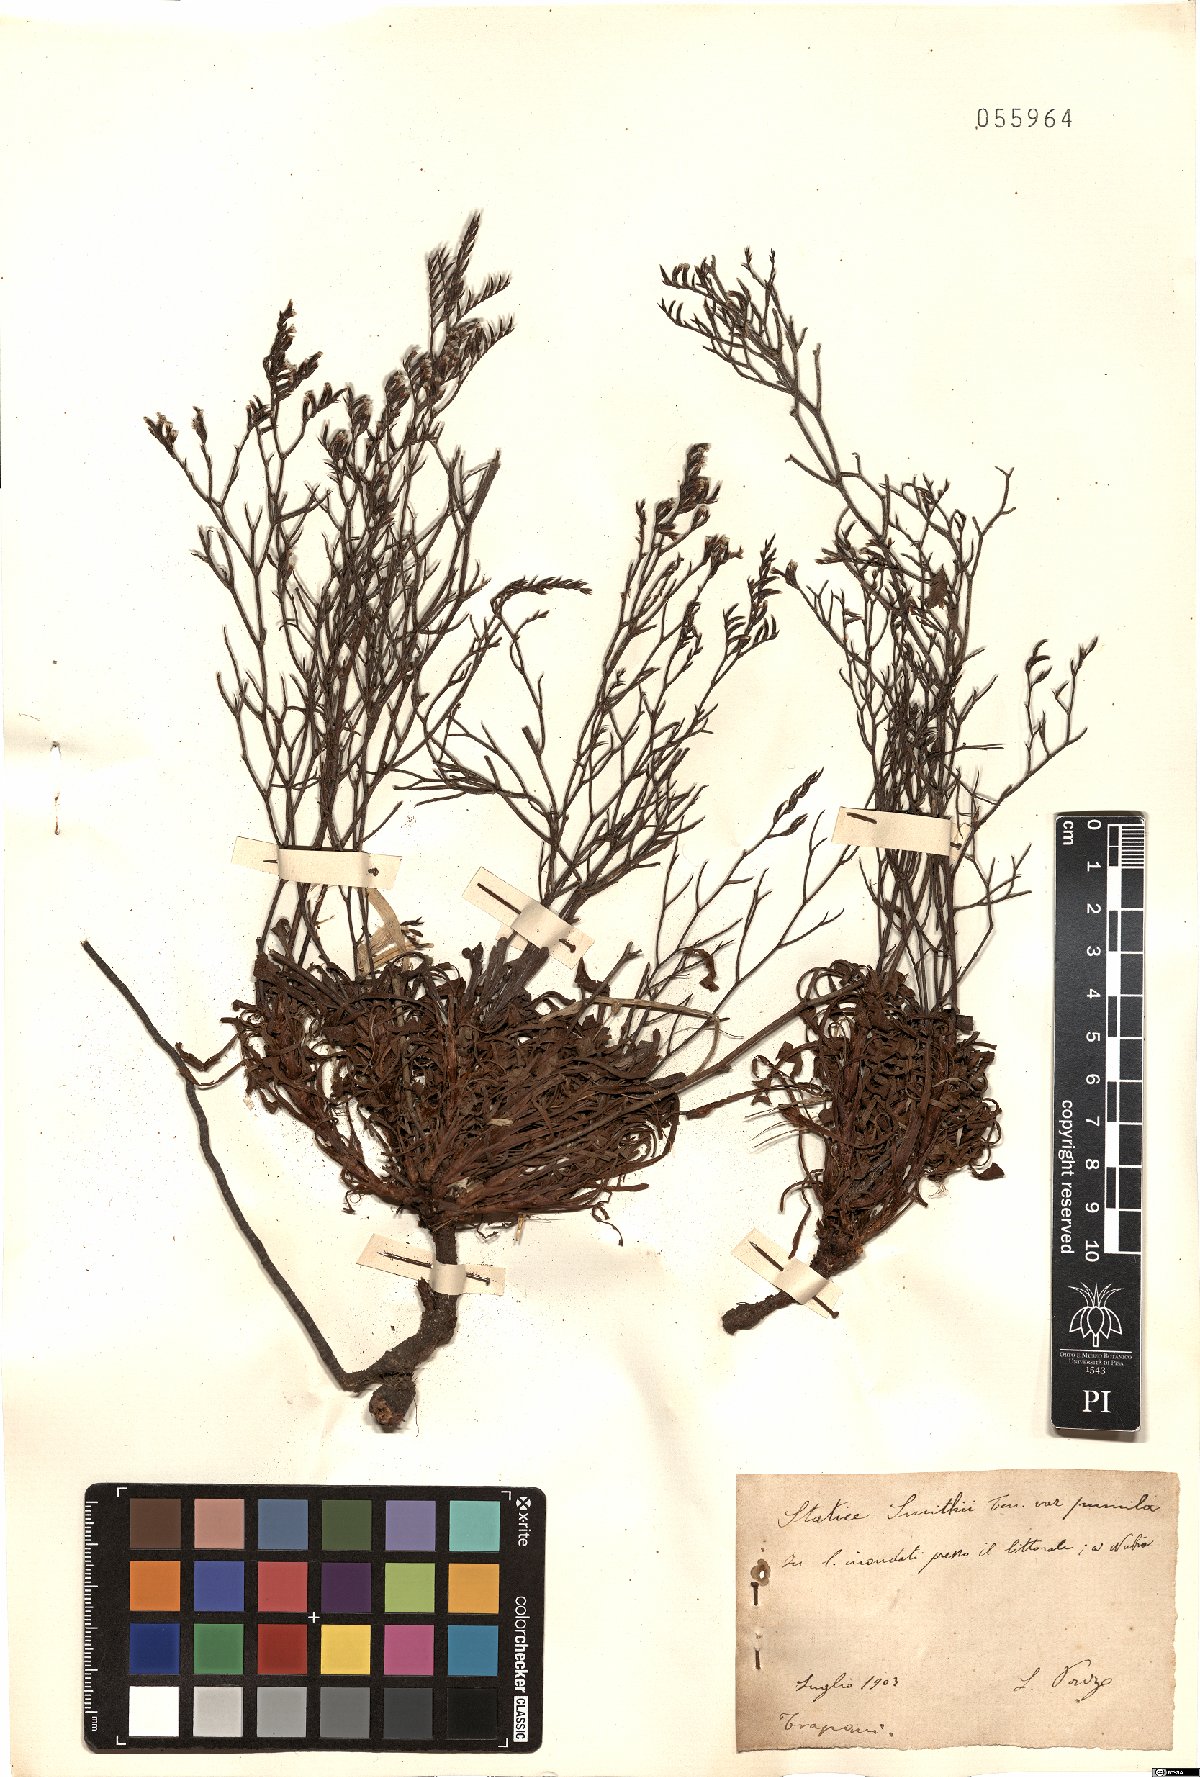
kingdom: Plantae
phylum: Tracheophyta
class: Magnoliopsida
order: Caryophyllales
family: Plumbaginaceae
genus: Limonium
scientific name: Limonium virgatum
